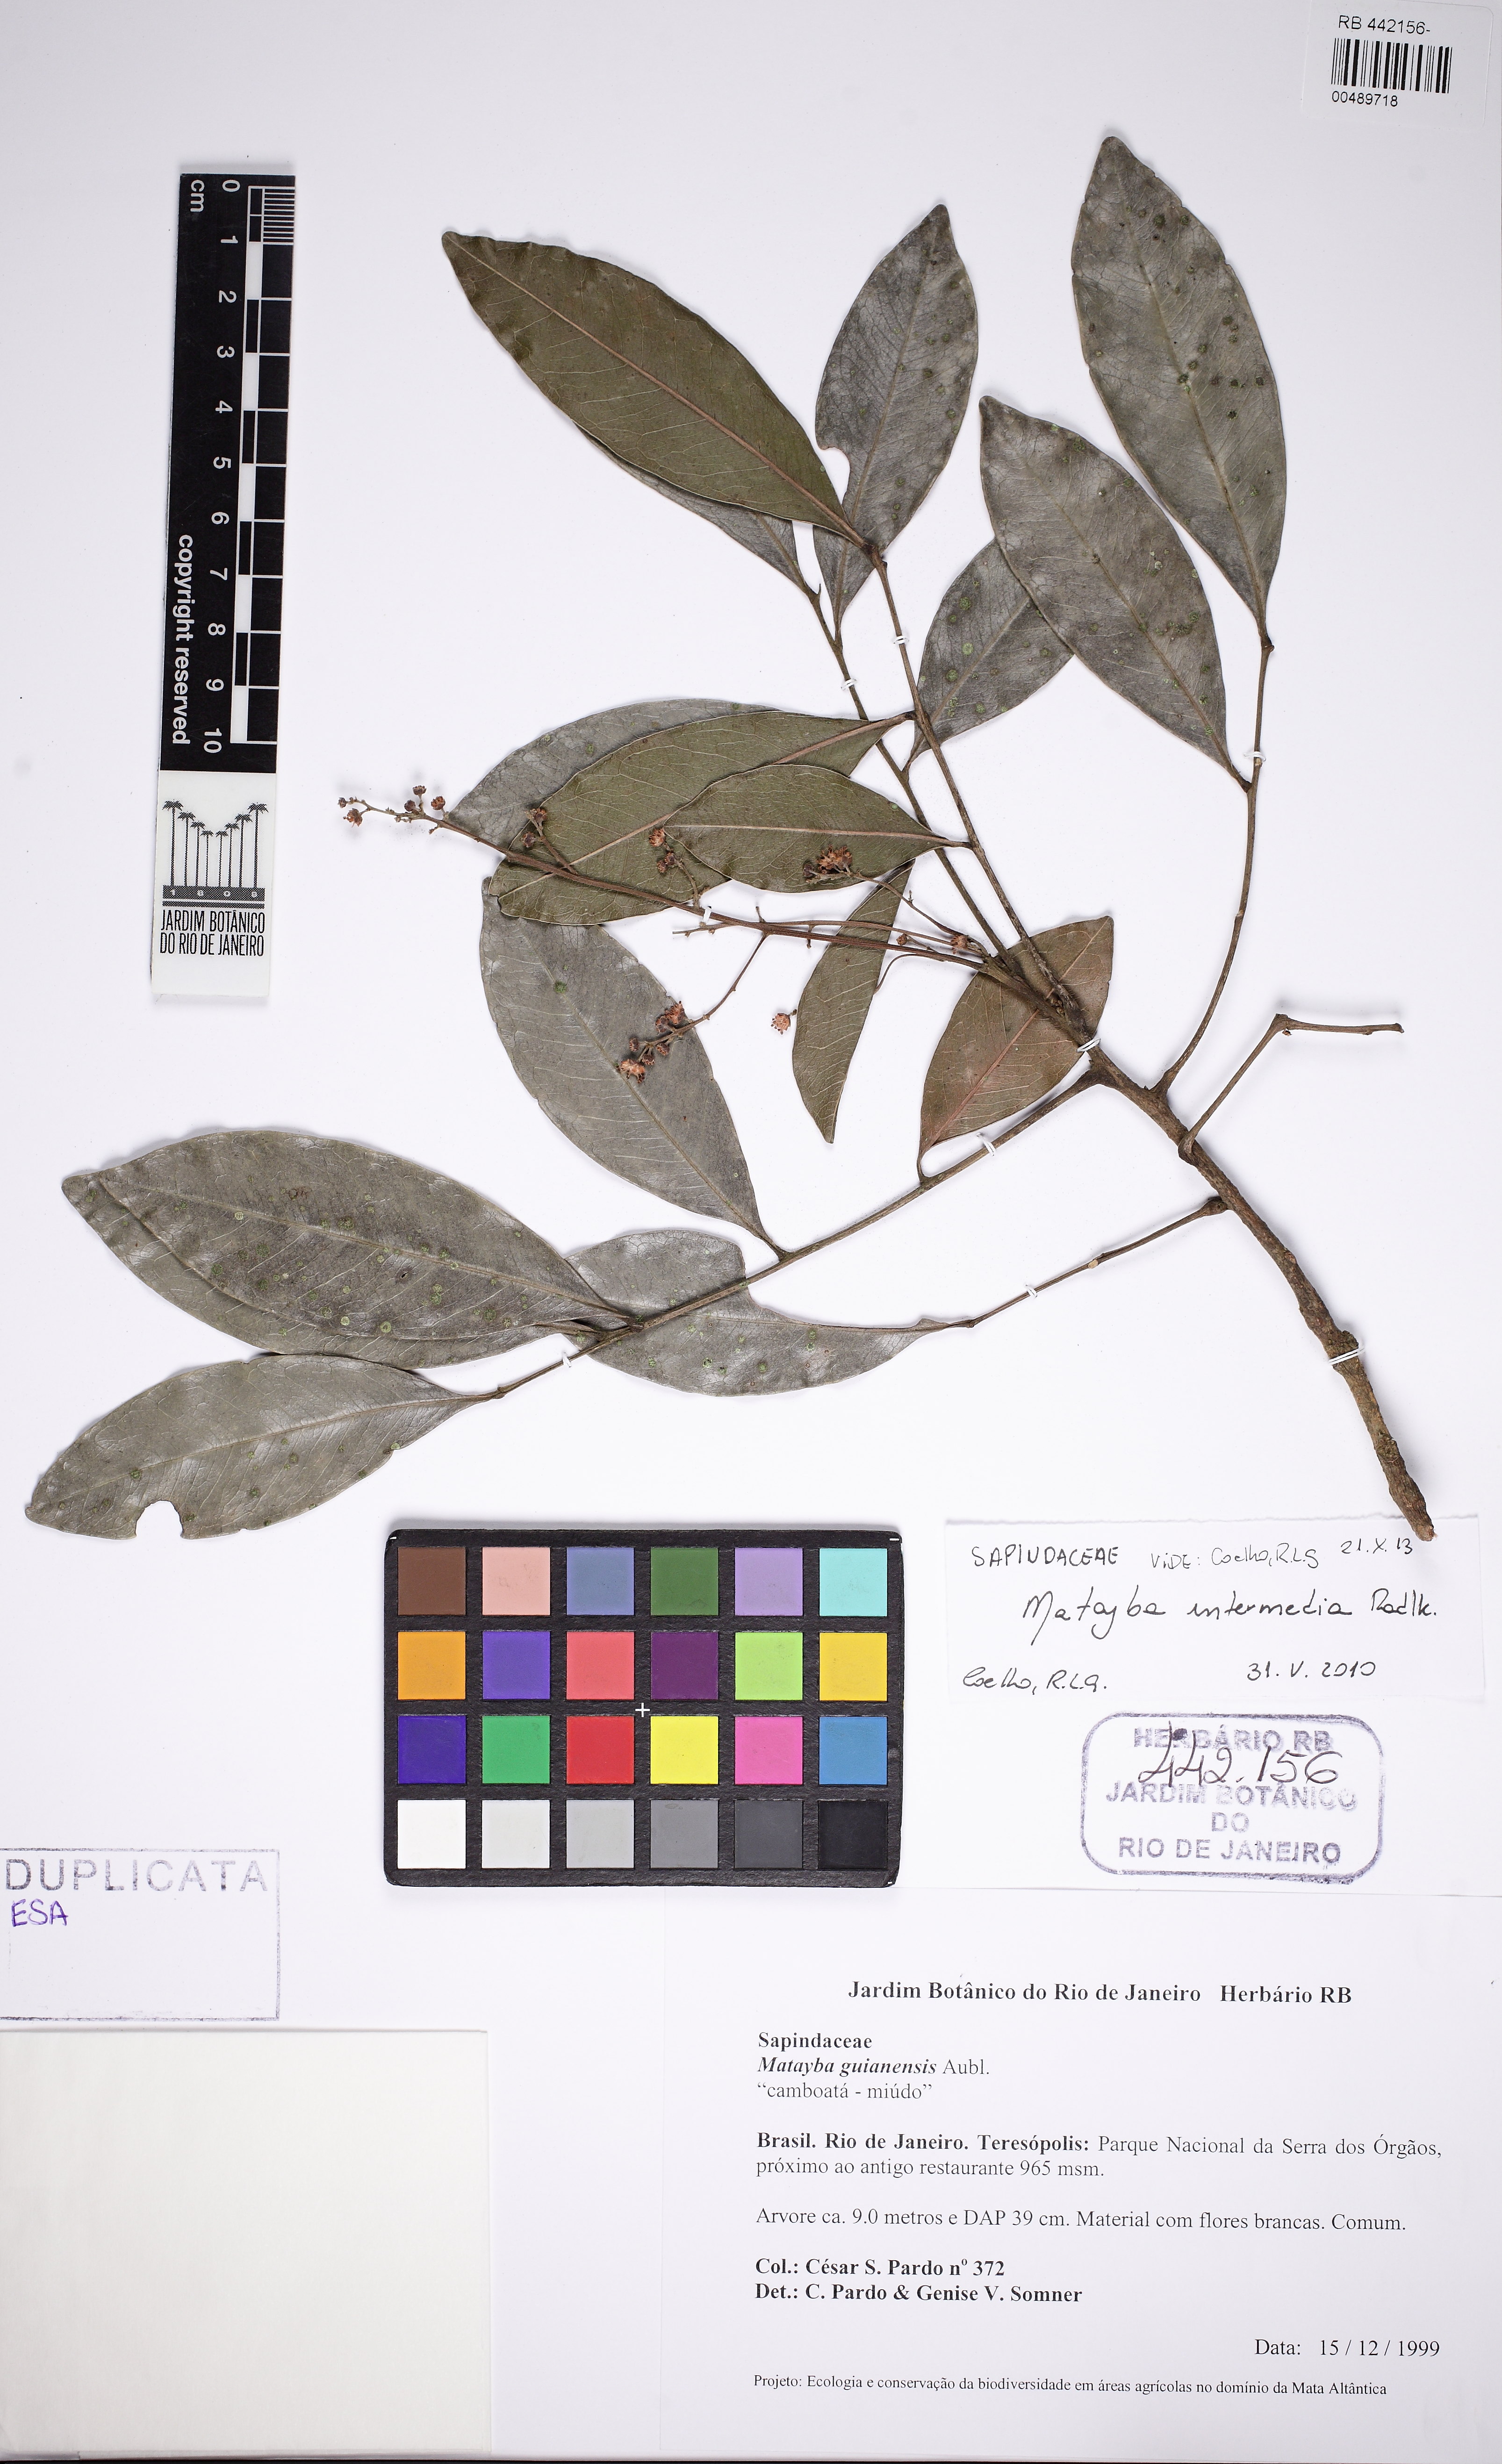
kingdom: Plantae
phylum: Tracheophyta
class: Magnoliopsida
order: Sapindales
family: Sapindaceae
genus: Matayba
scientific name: Matayba intermedia
